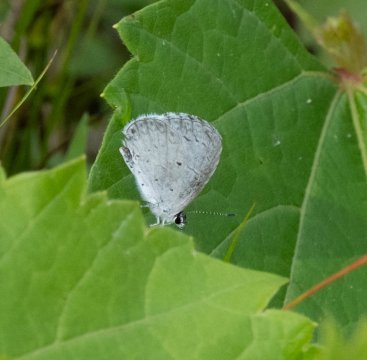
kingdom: Animalia
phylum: Arthropoda
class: Insecta
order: Lepidoptera
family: Lycaenidae
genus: Cyaniris
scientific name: Cyaniris neglecta
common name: Summer Azure
